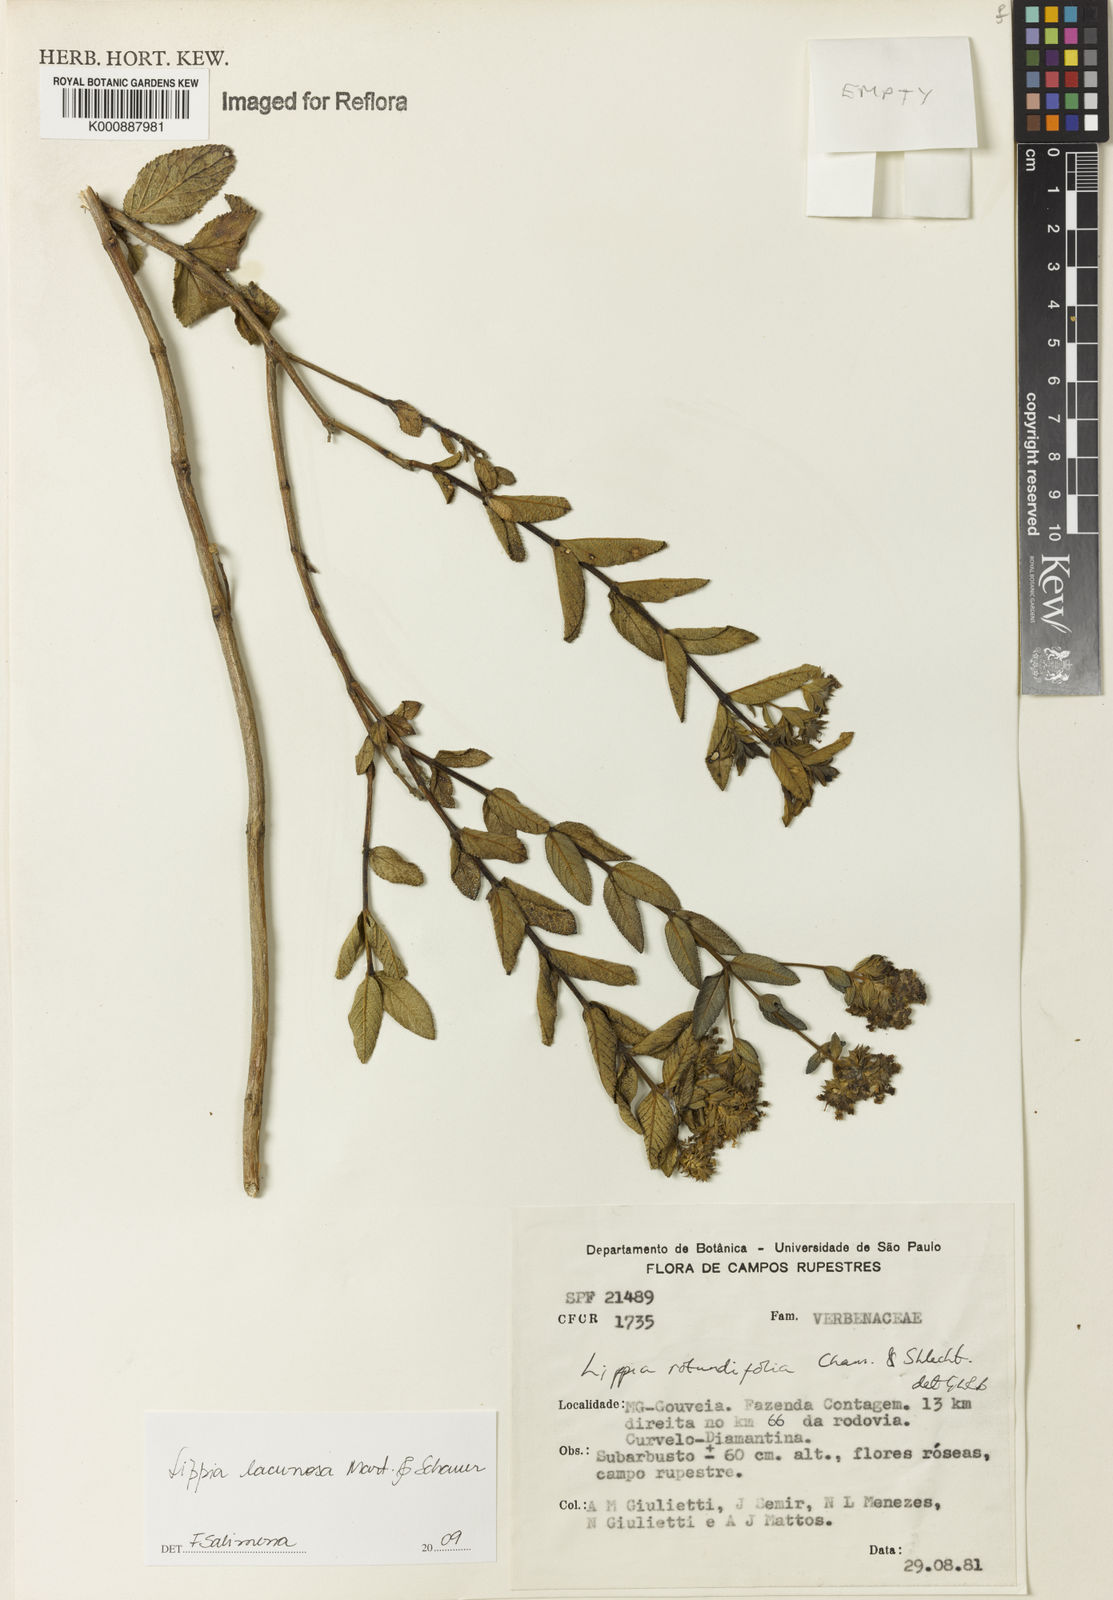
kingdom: Plantae
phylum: Tracheophyta
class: Magnoliopsida
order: Lamiales
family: Verbenaceae
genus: Lippia
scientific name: Lippia lacunosa
